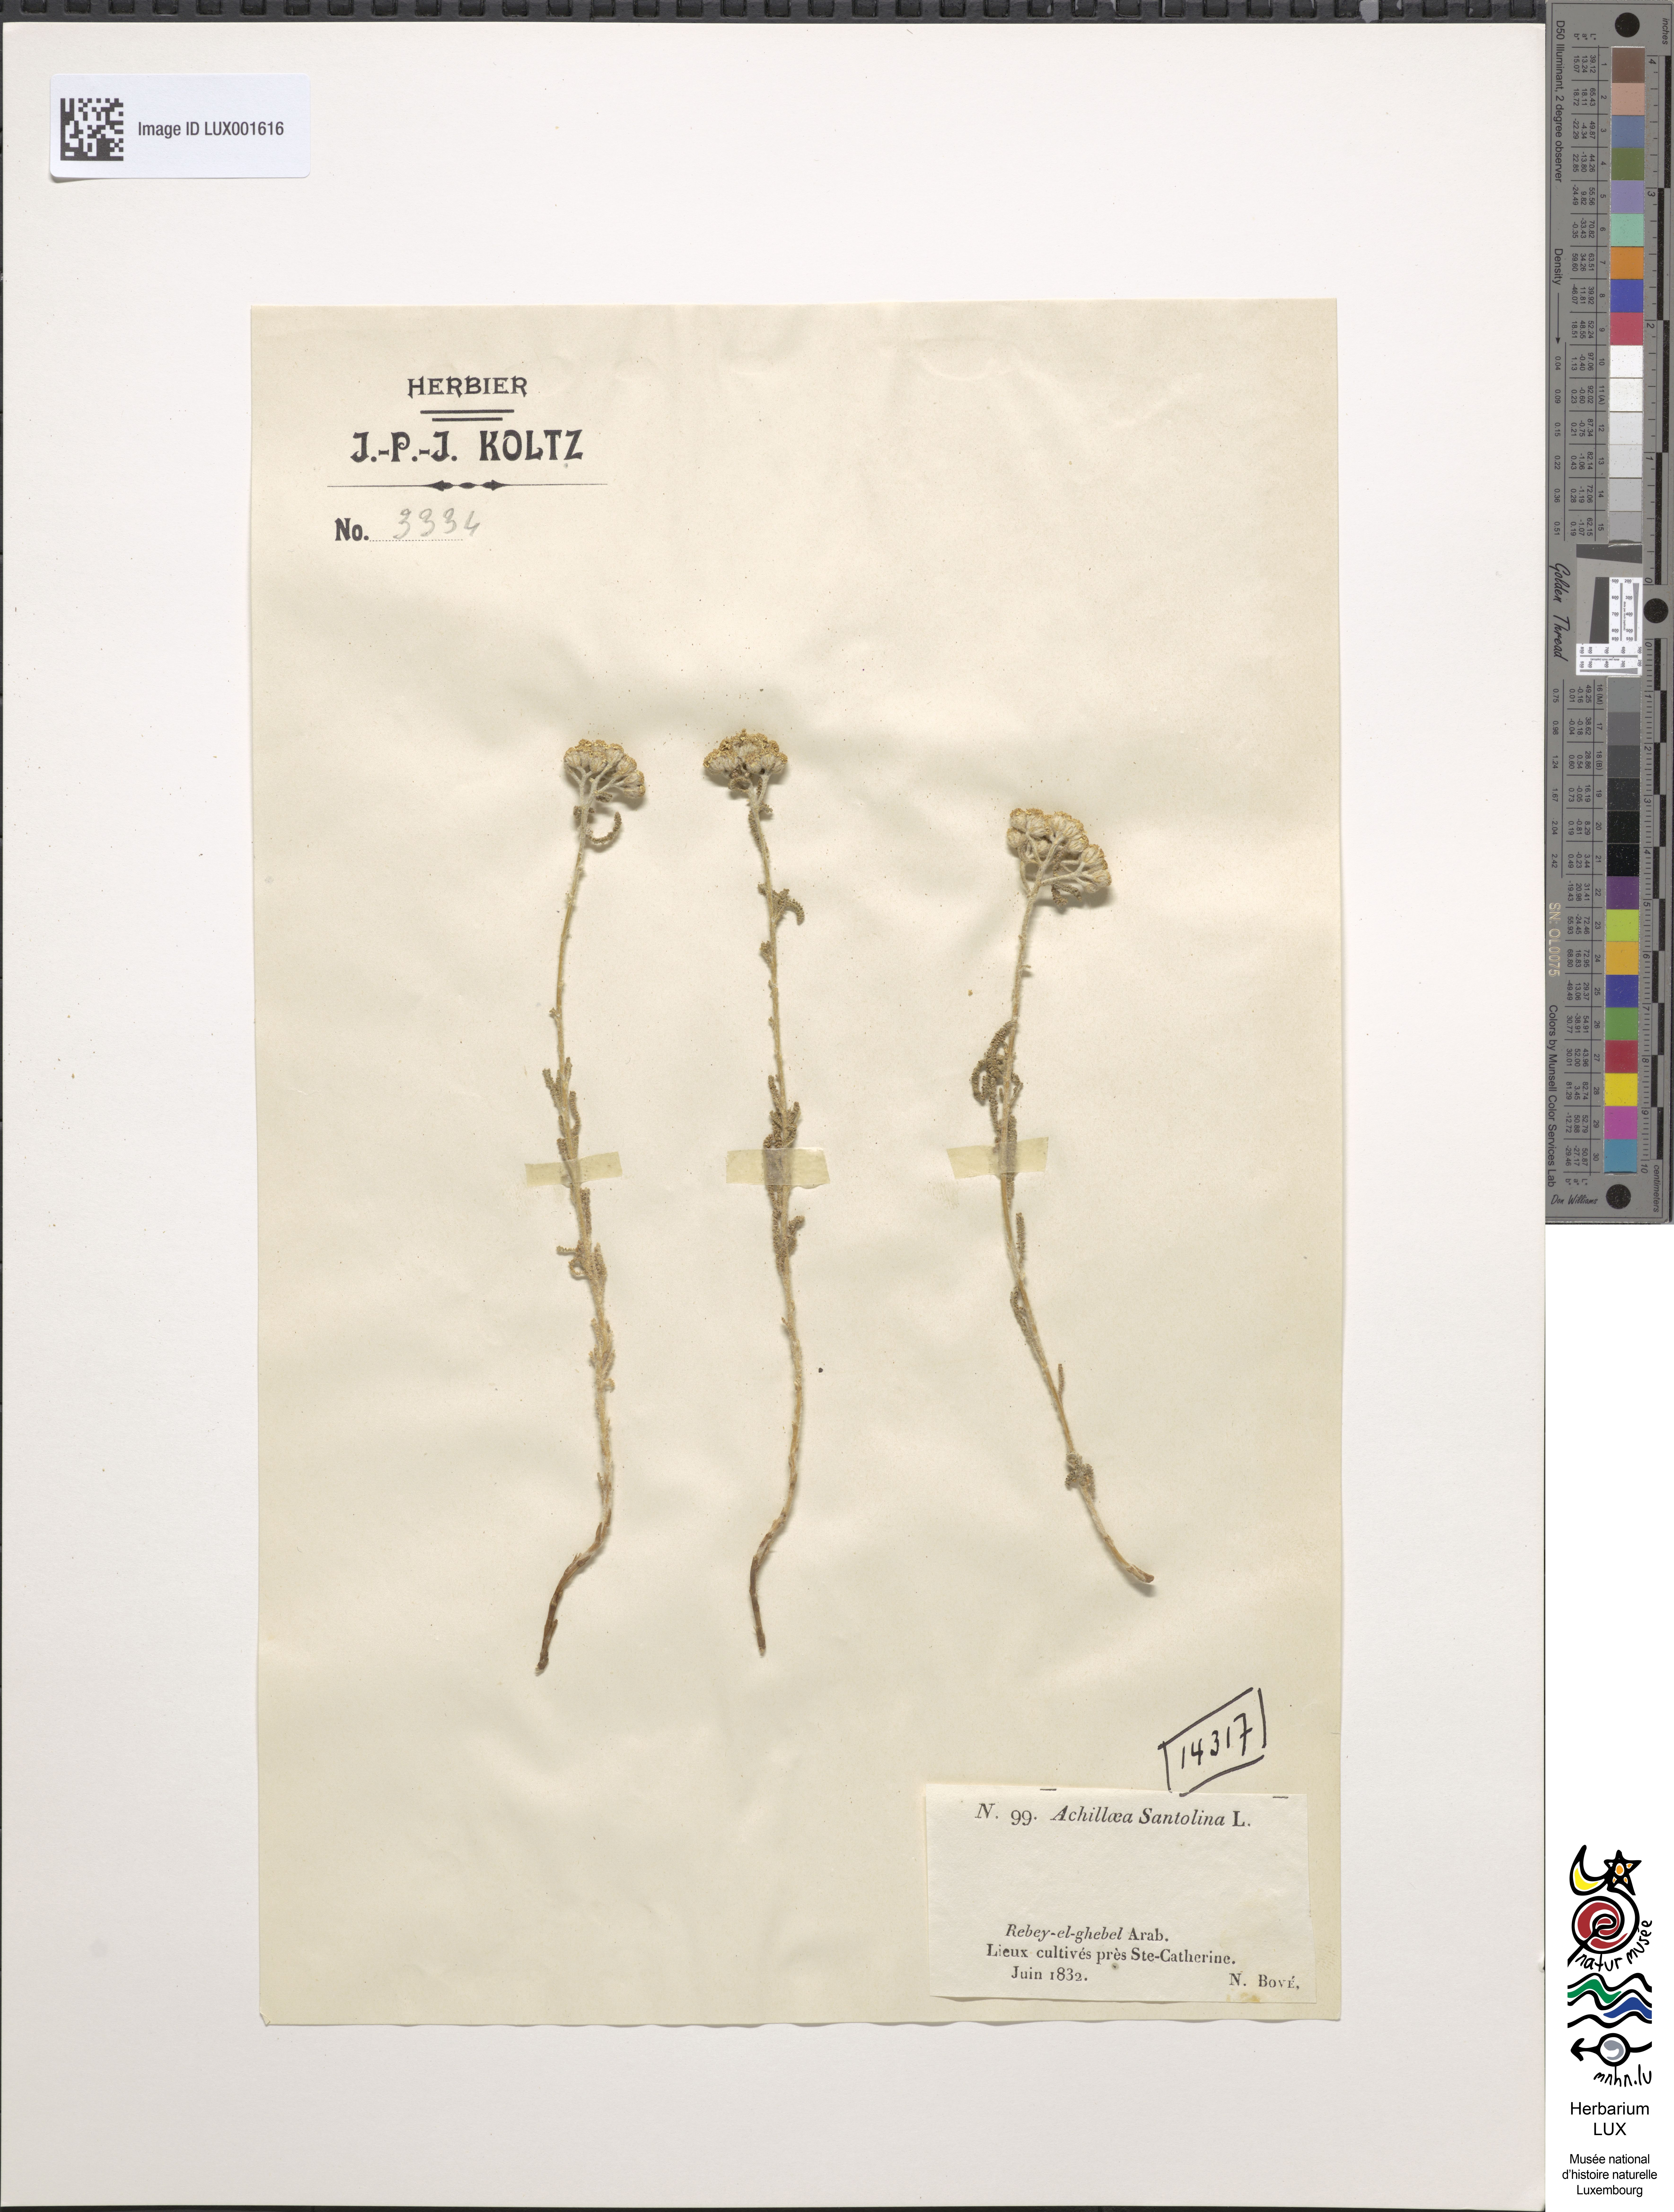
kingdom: Plantae
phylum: Tracheophyta
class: Magnoliopsida
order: Asterales
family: Asteraceae
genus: Achillea
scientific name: Achillea santolina
